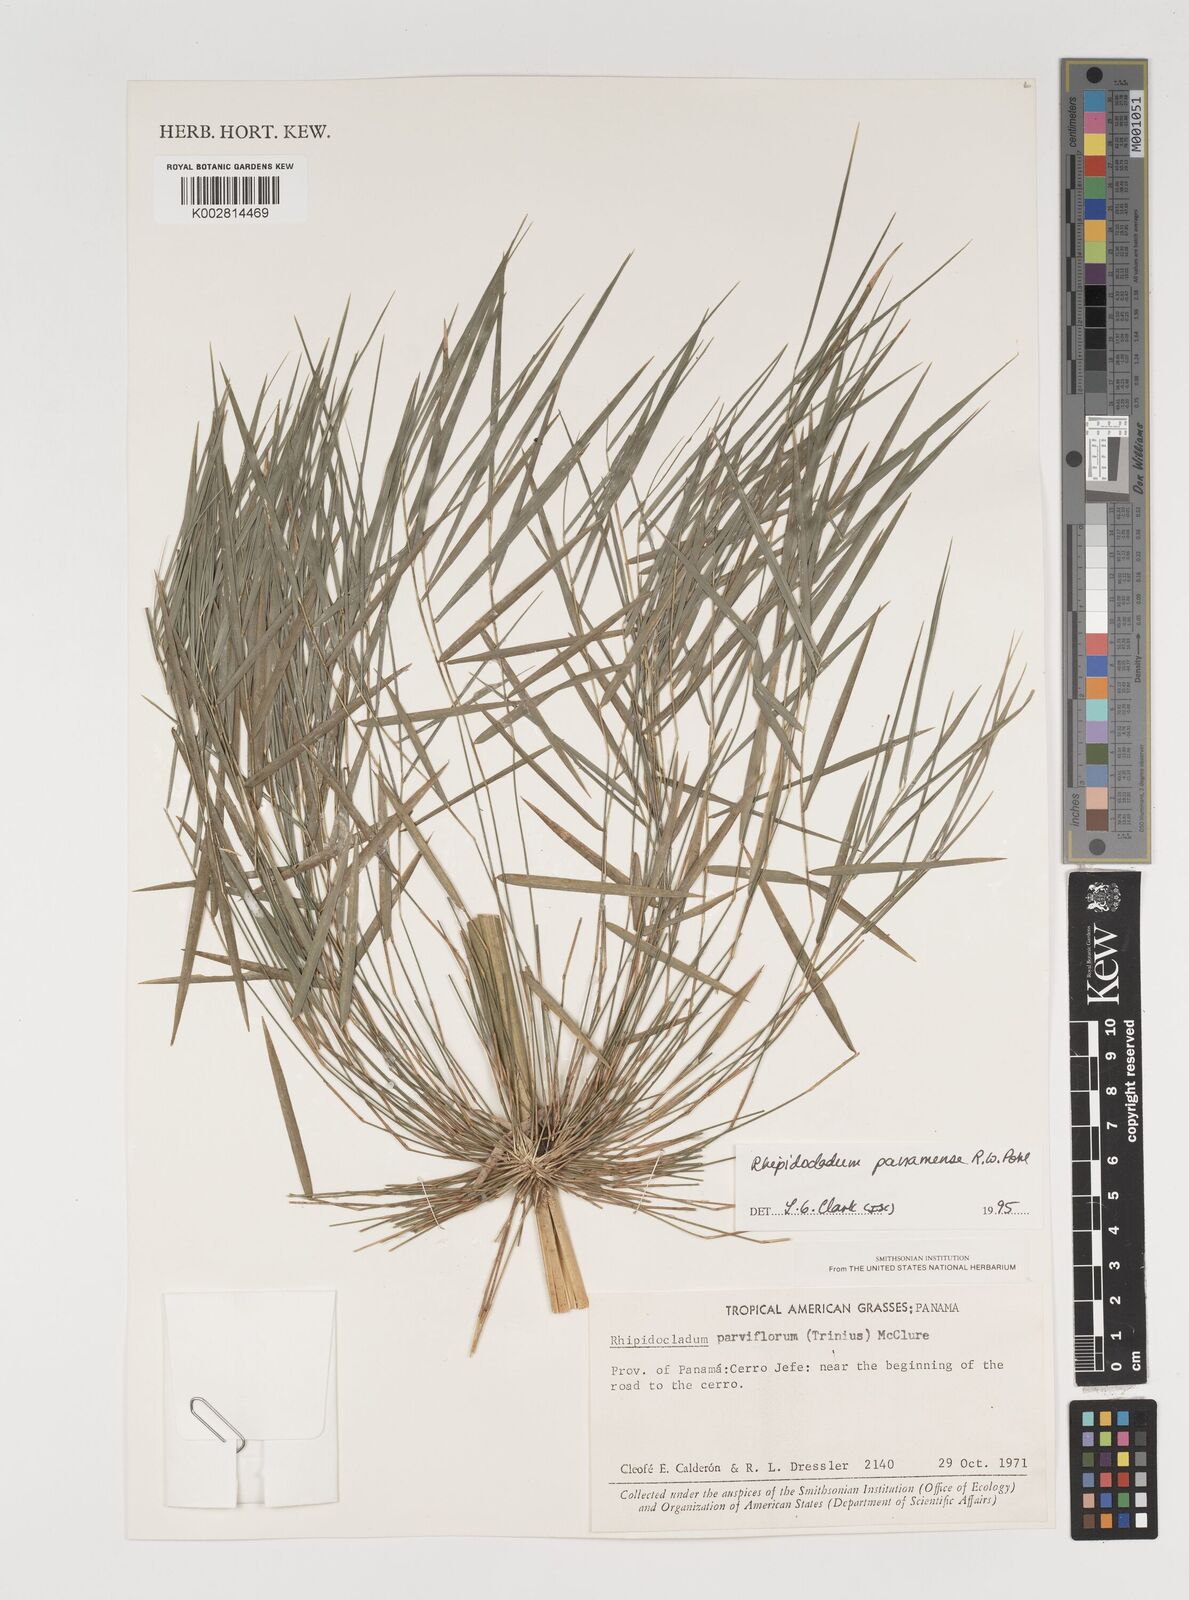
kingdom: Plantae
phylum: Tracheophyta
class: Liliopsida
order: Poales
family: Poaceae
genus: Rhipidocladum
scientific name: Rhipidocladum panamense
